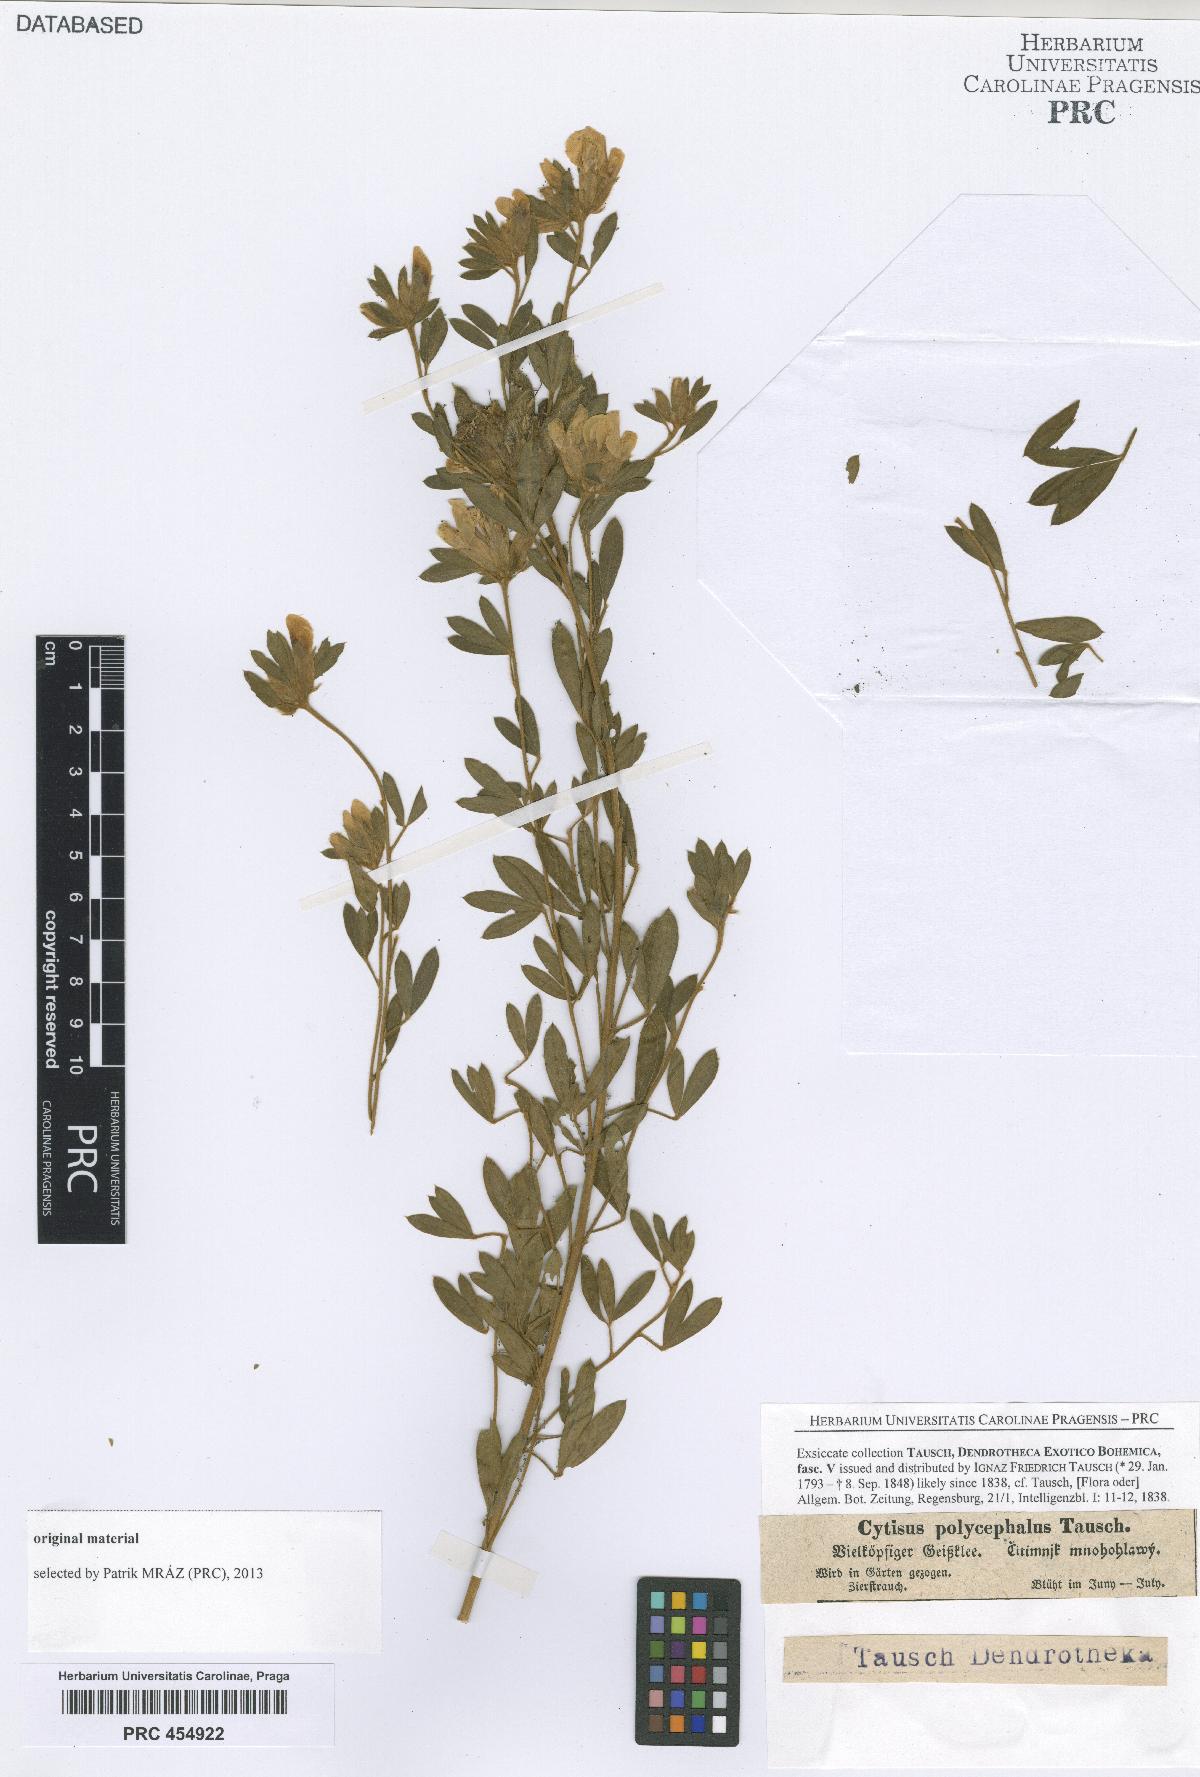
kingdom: Plantae
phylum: Tracheophyta
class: Magnoliopsida
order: Fabales
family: Fabaceae
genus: Chamaecytisus
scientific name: Chamaecytisus albus
